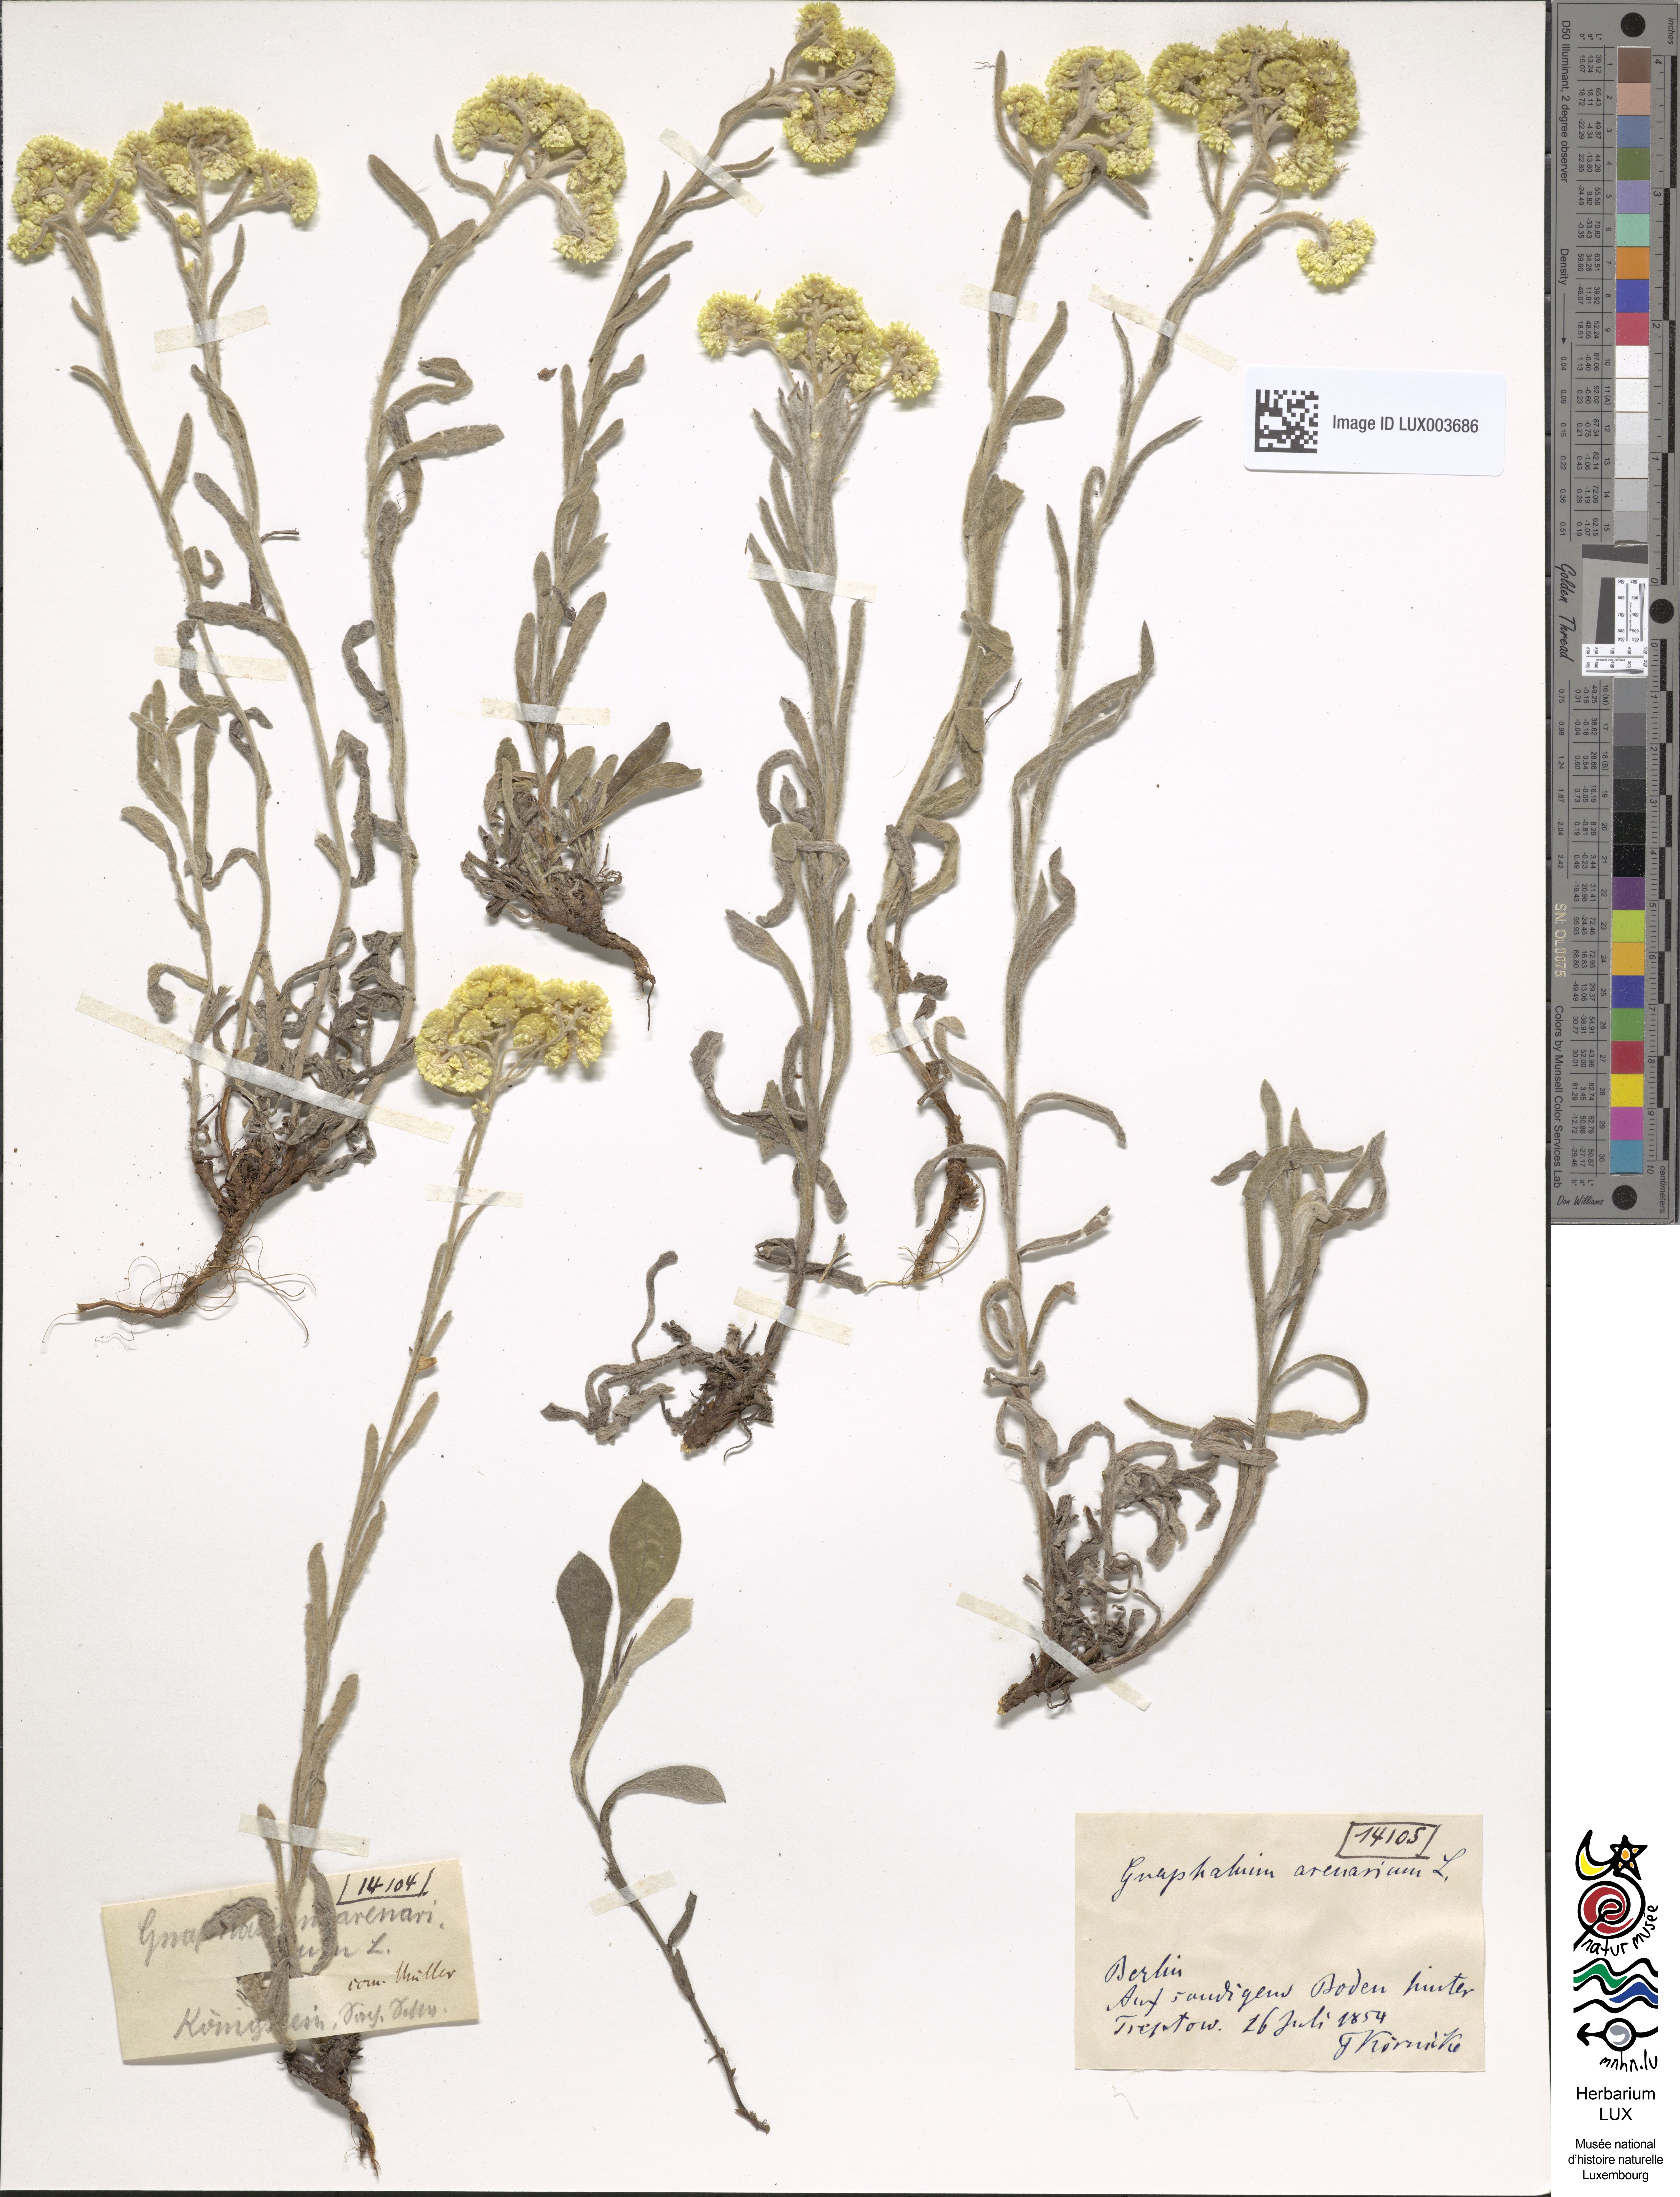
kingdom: Plantae
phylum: Tracheophyta
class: Magnoliopsida
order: Asterales
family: Asteraceae
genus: Helichrysum
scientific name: Helichrysum arenarium
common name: Strawflower
